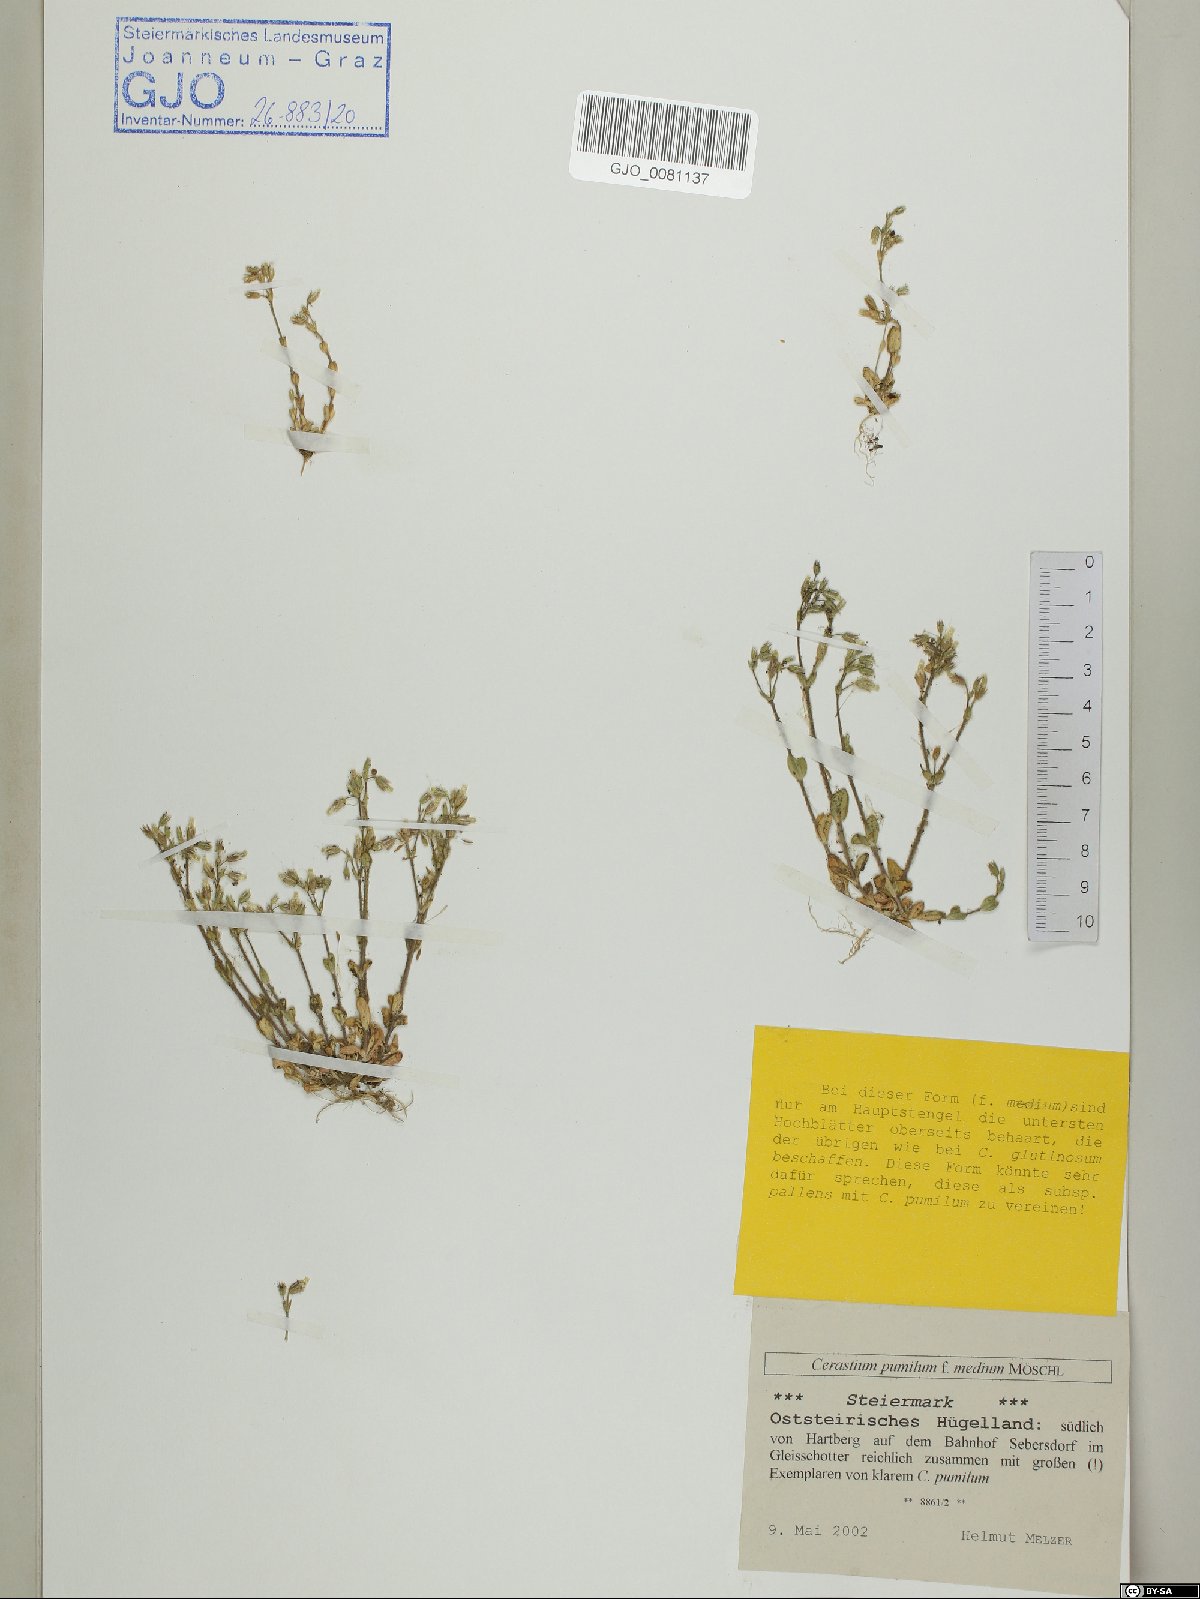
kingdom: Plantae
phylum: Tracheophyta
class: Magnoliopsida
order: Caryophyllales
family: Caryophyllaceae
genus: Cerastium
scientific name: Cerastium pumilum
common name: Dwarf mouse-ear
